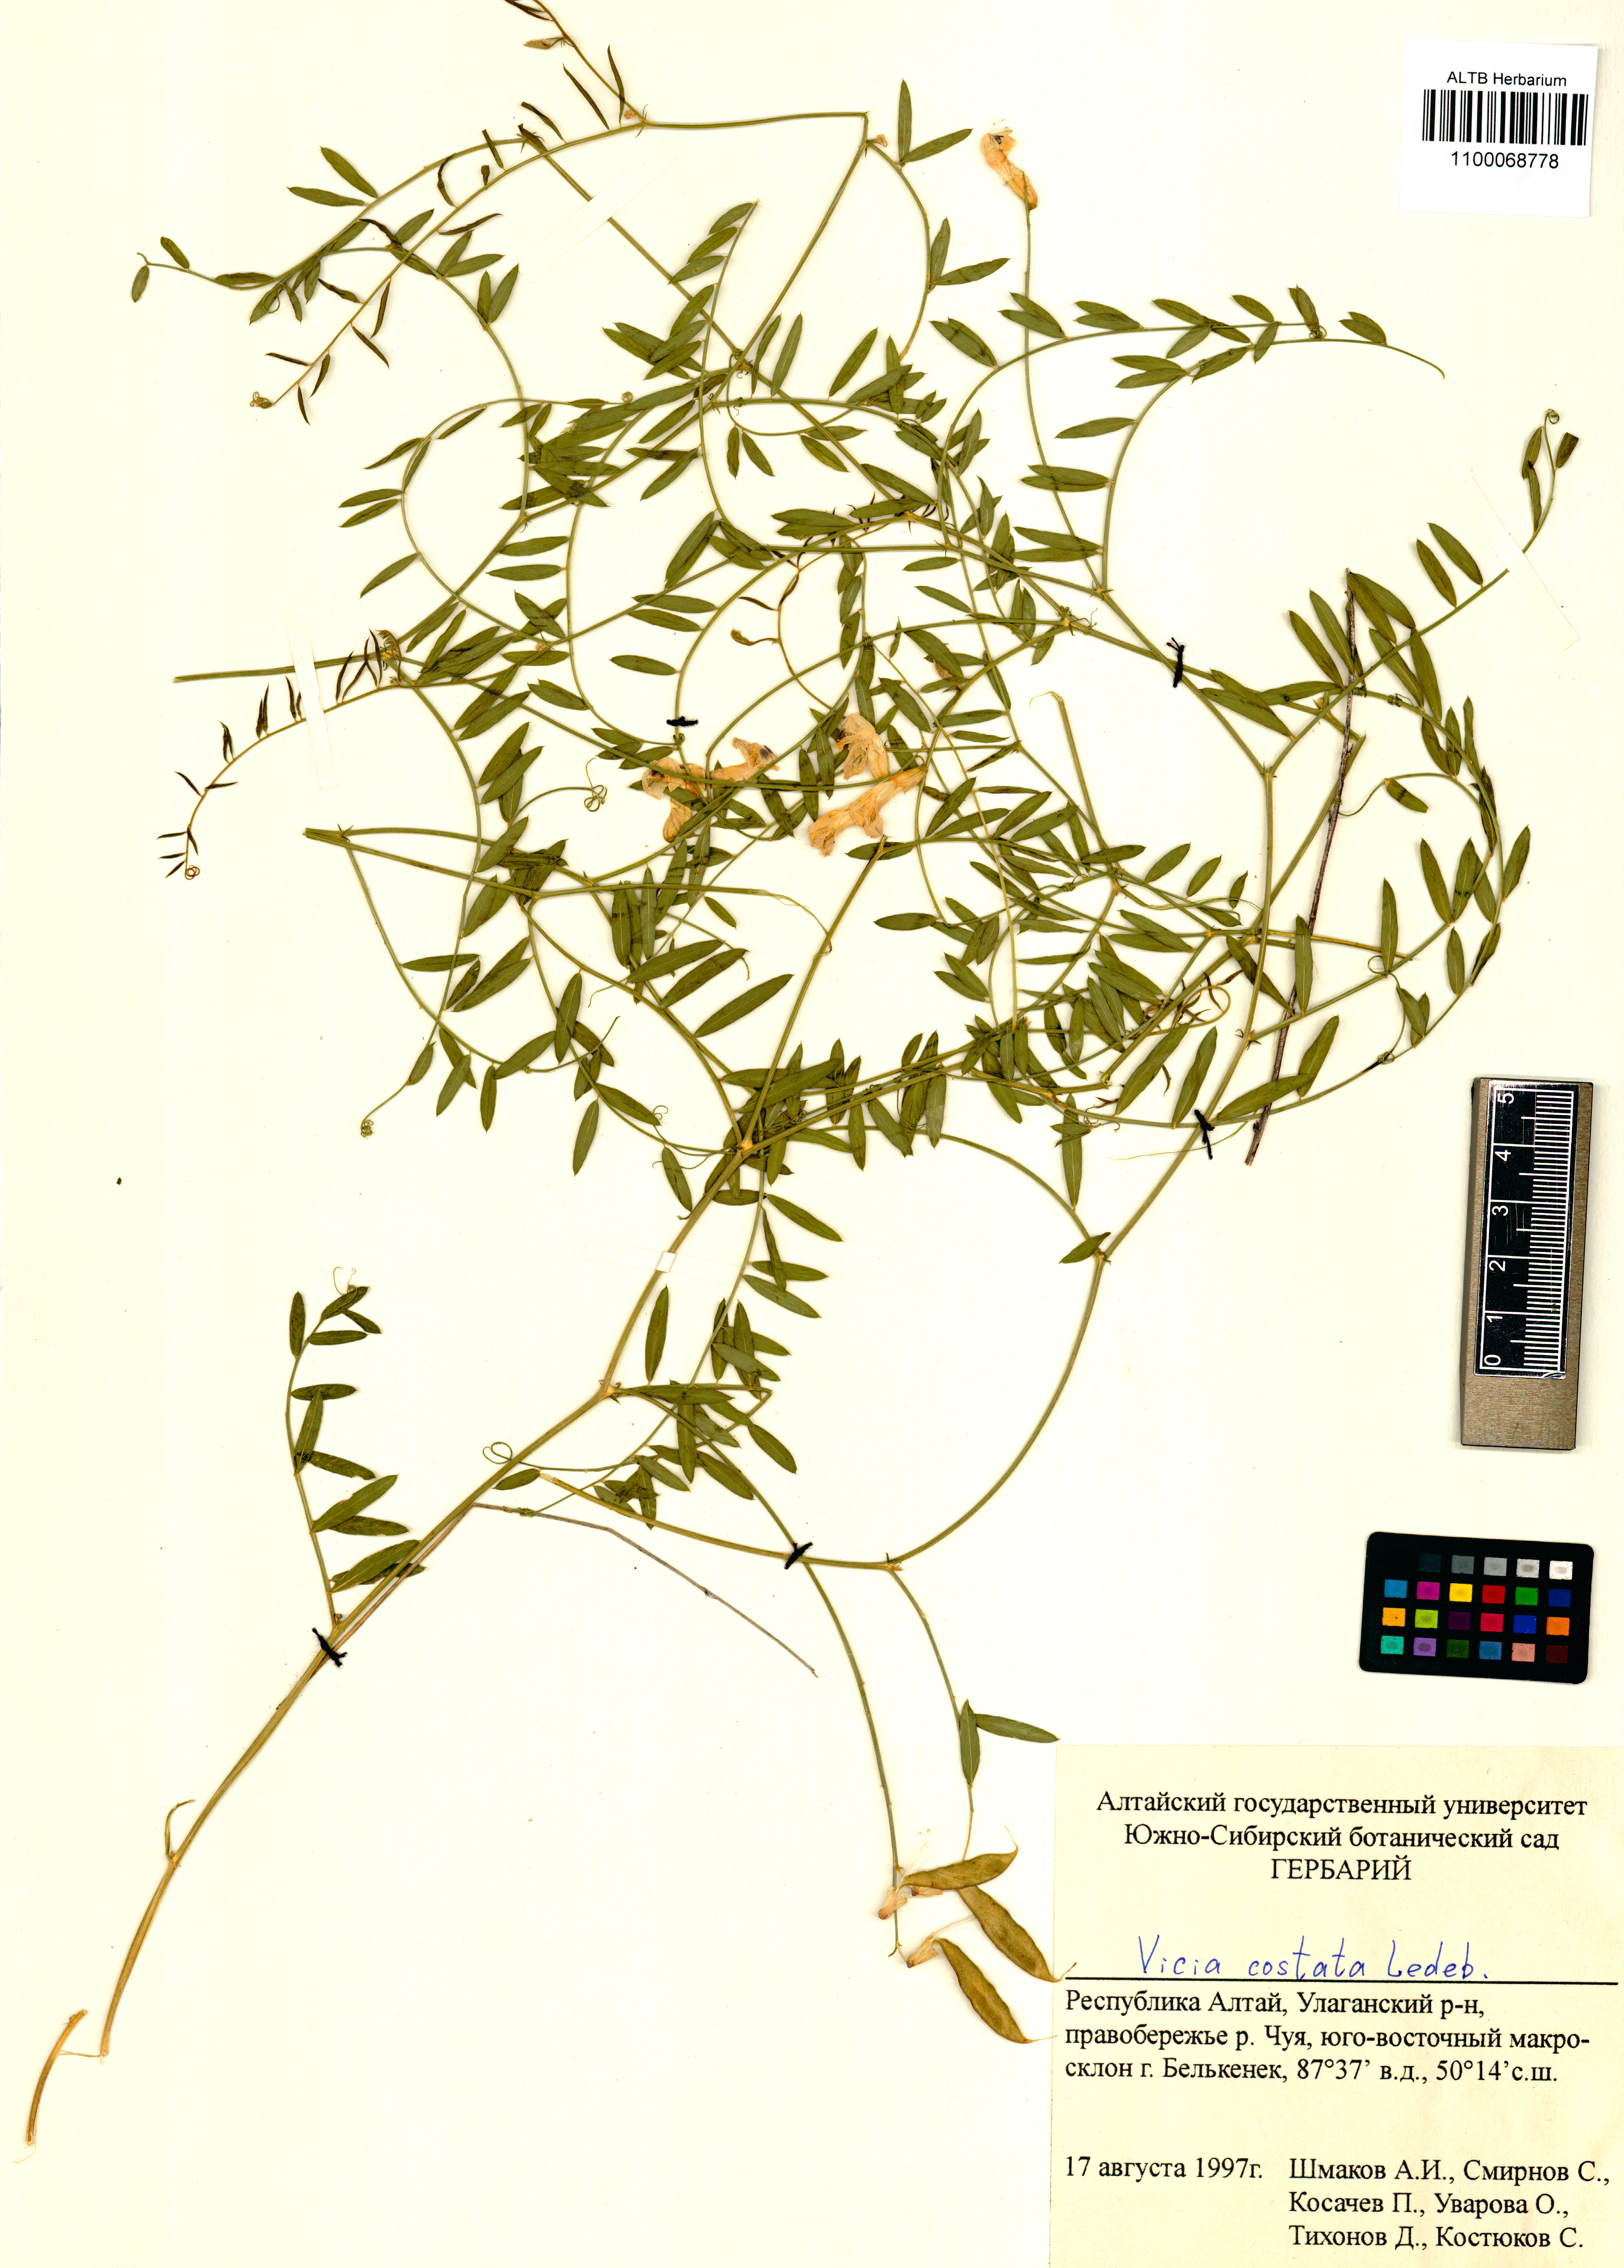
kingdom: Plantae
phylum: Tracheophyta
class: Magnoliopsida
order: Fabales
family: Fabaceae
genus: Vicia
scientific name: Vicia costata
